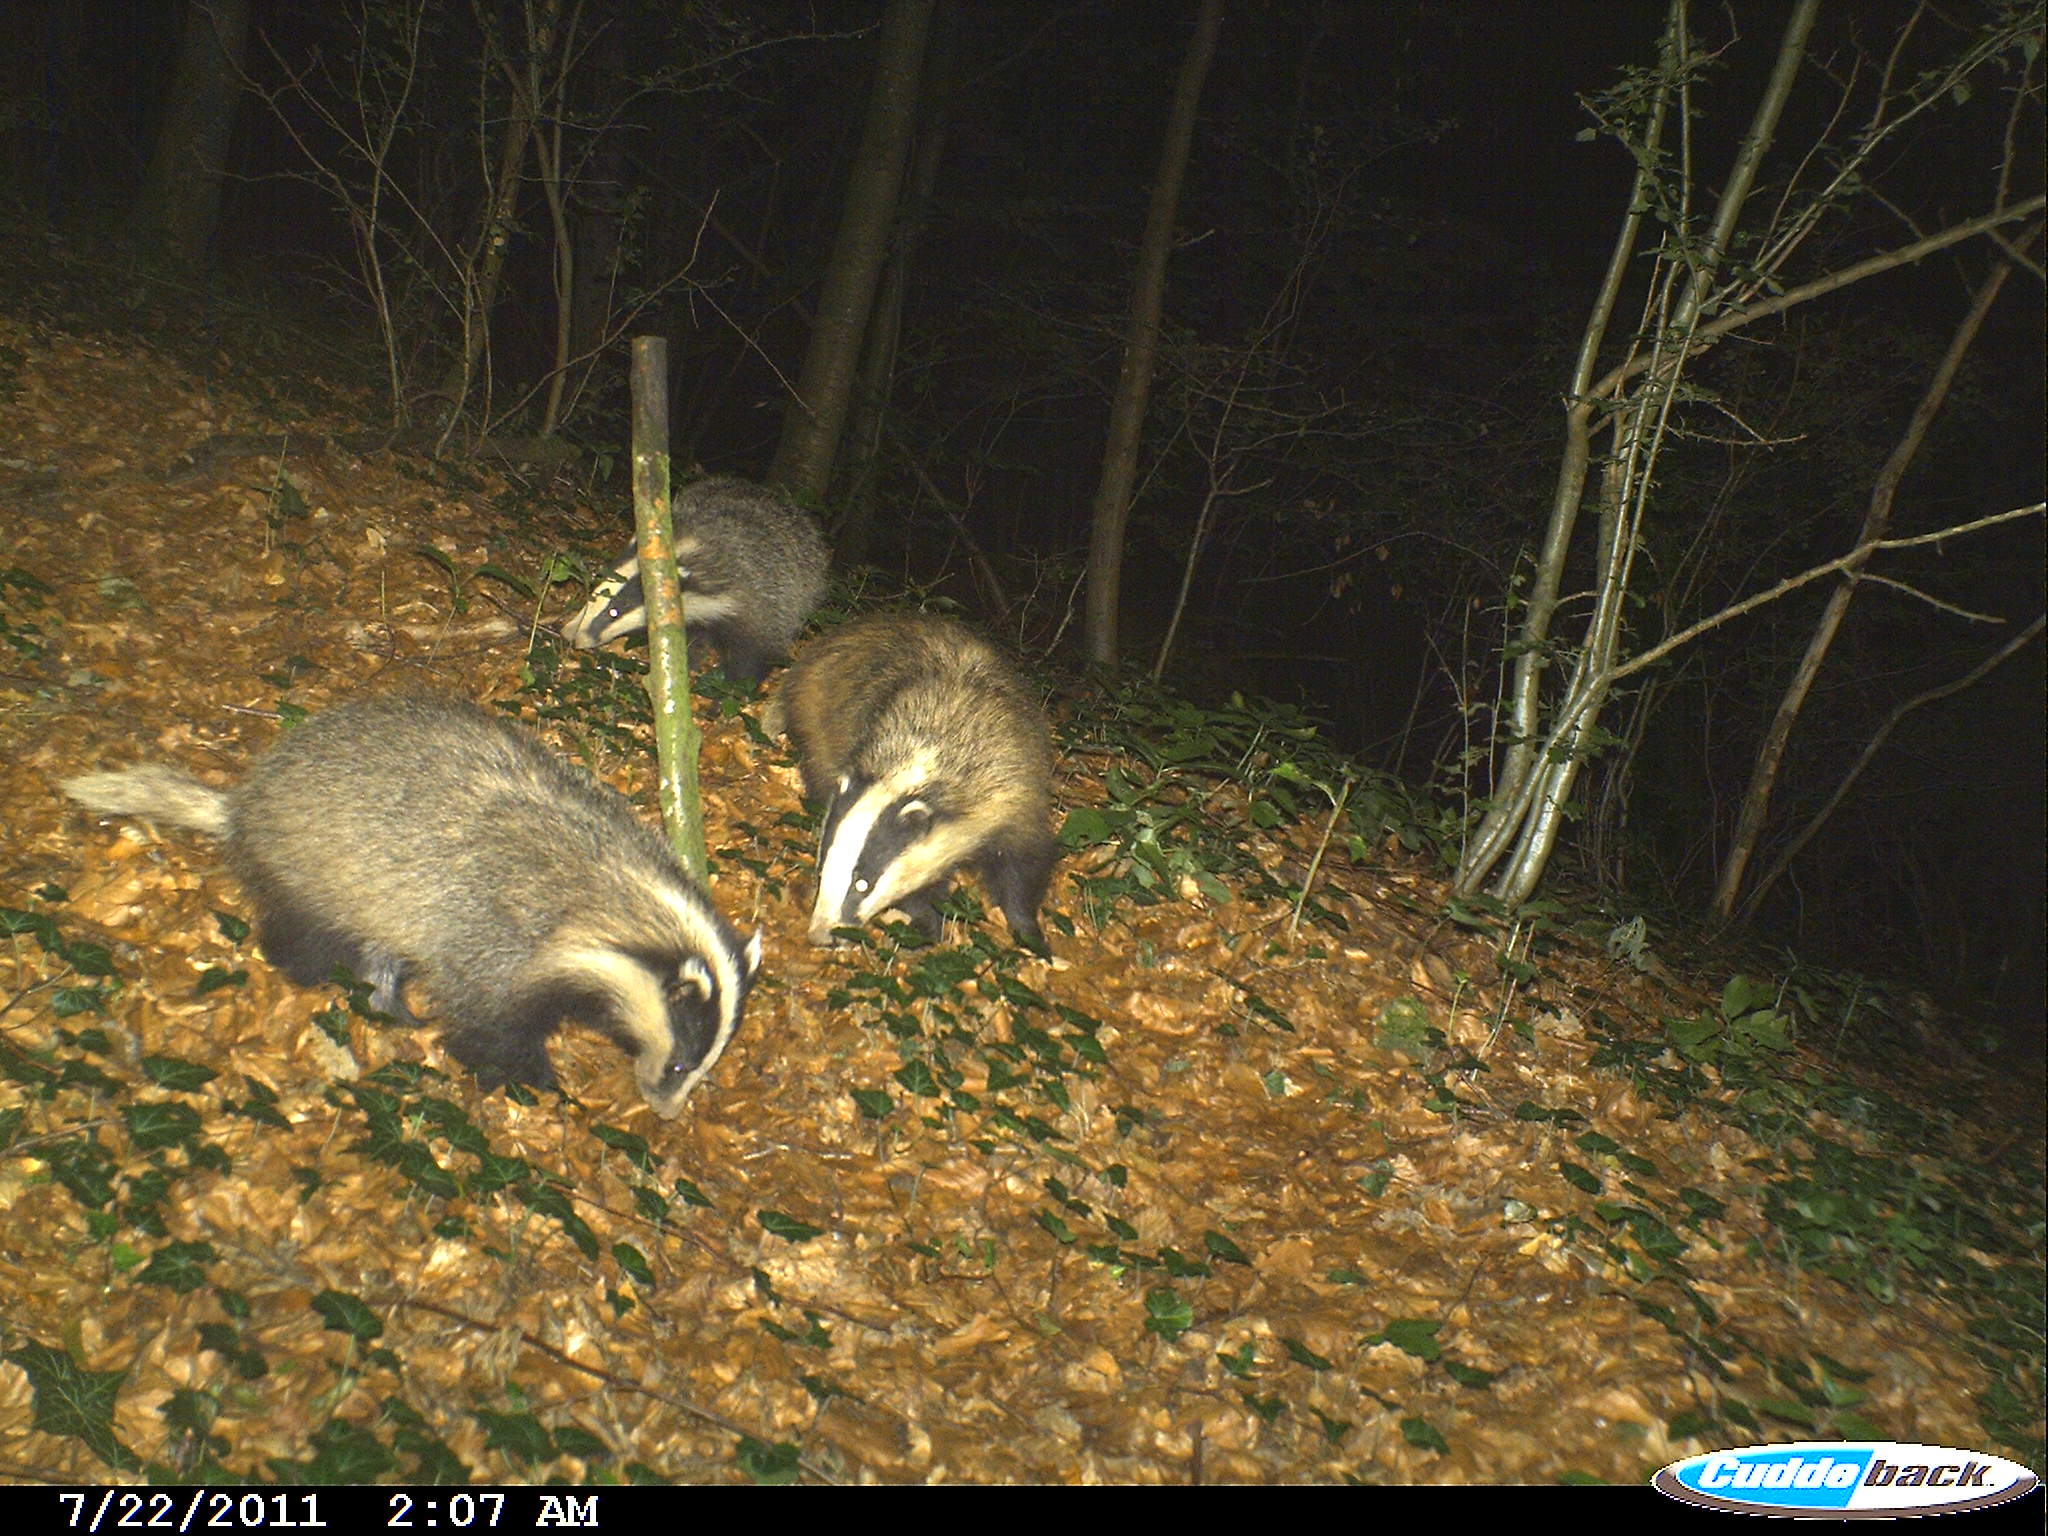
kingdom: Animalia
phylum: Chordata
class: Mammalia
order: Carnivora
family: Mustelidae
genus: Meles
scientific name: Meles meles
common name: Eurasian badger
